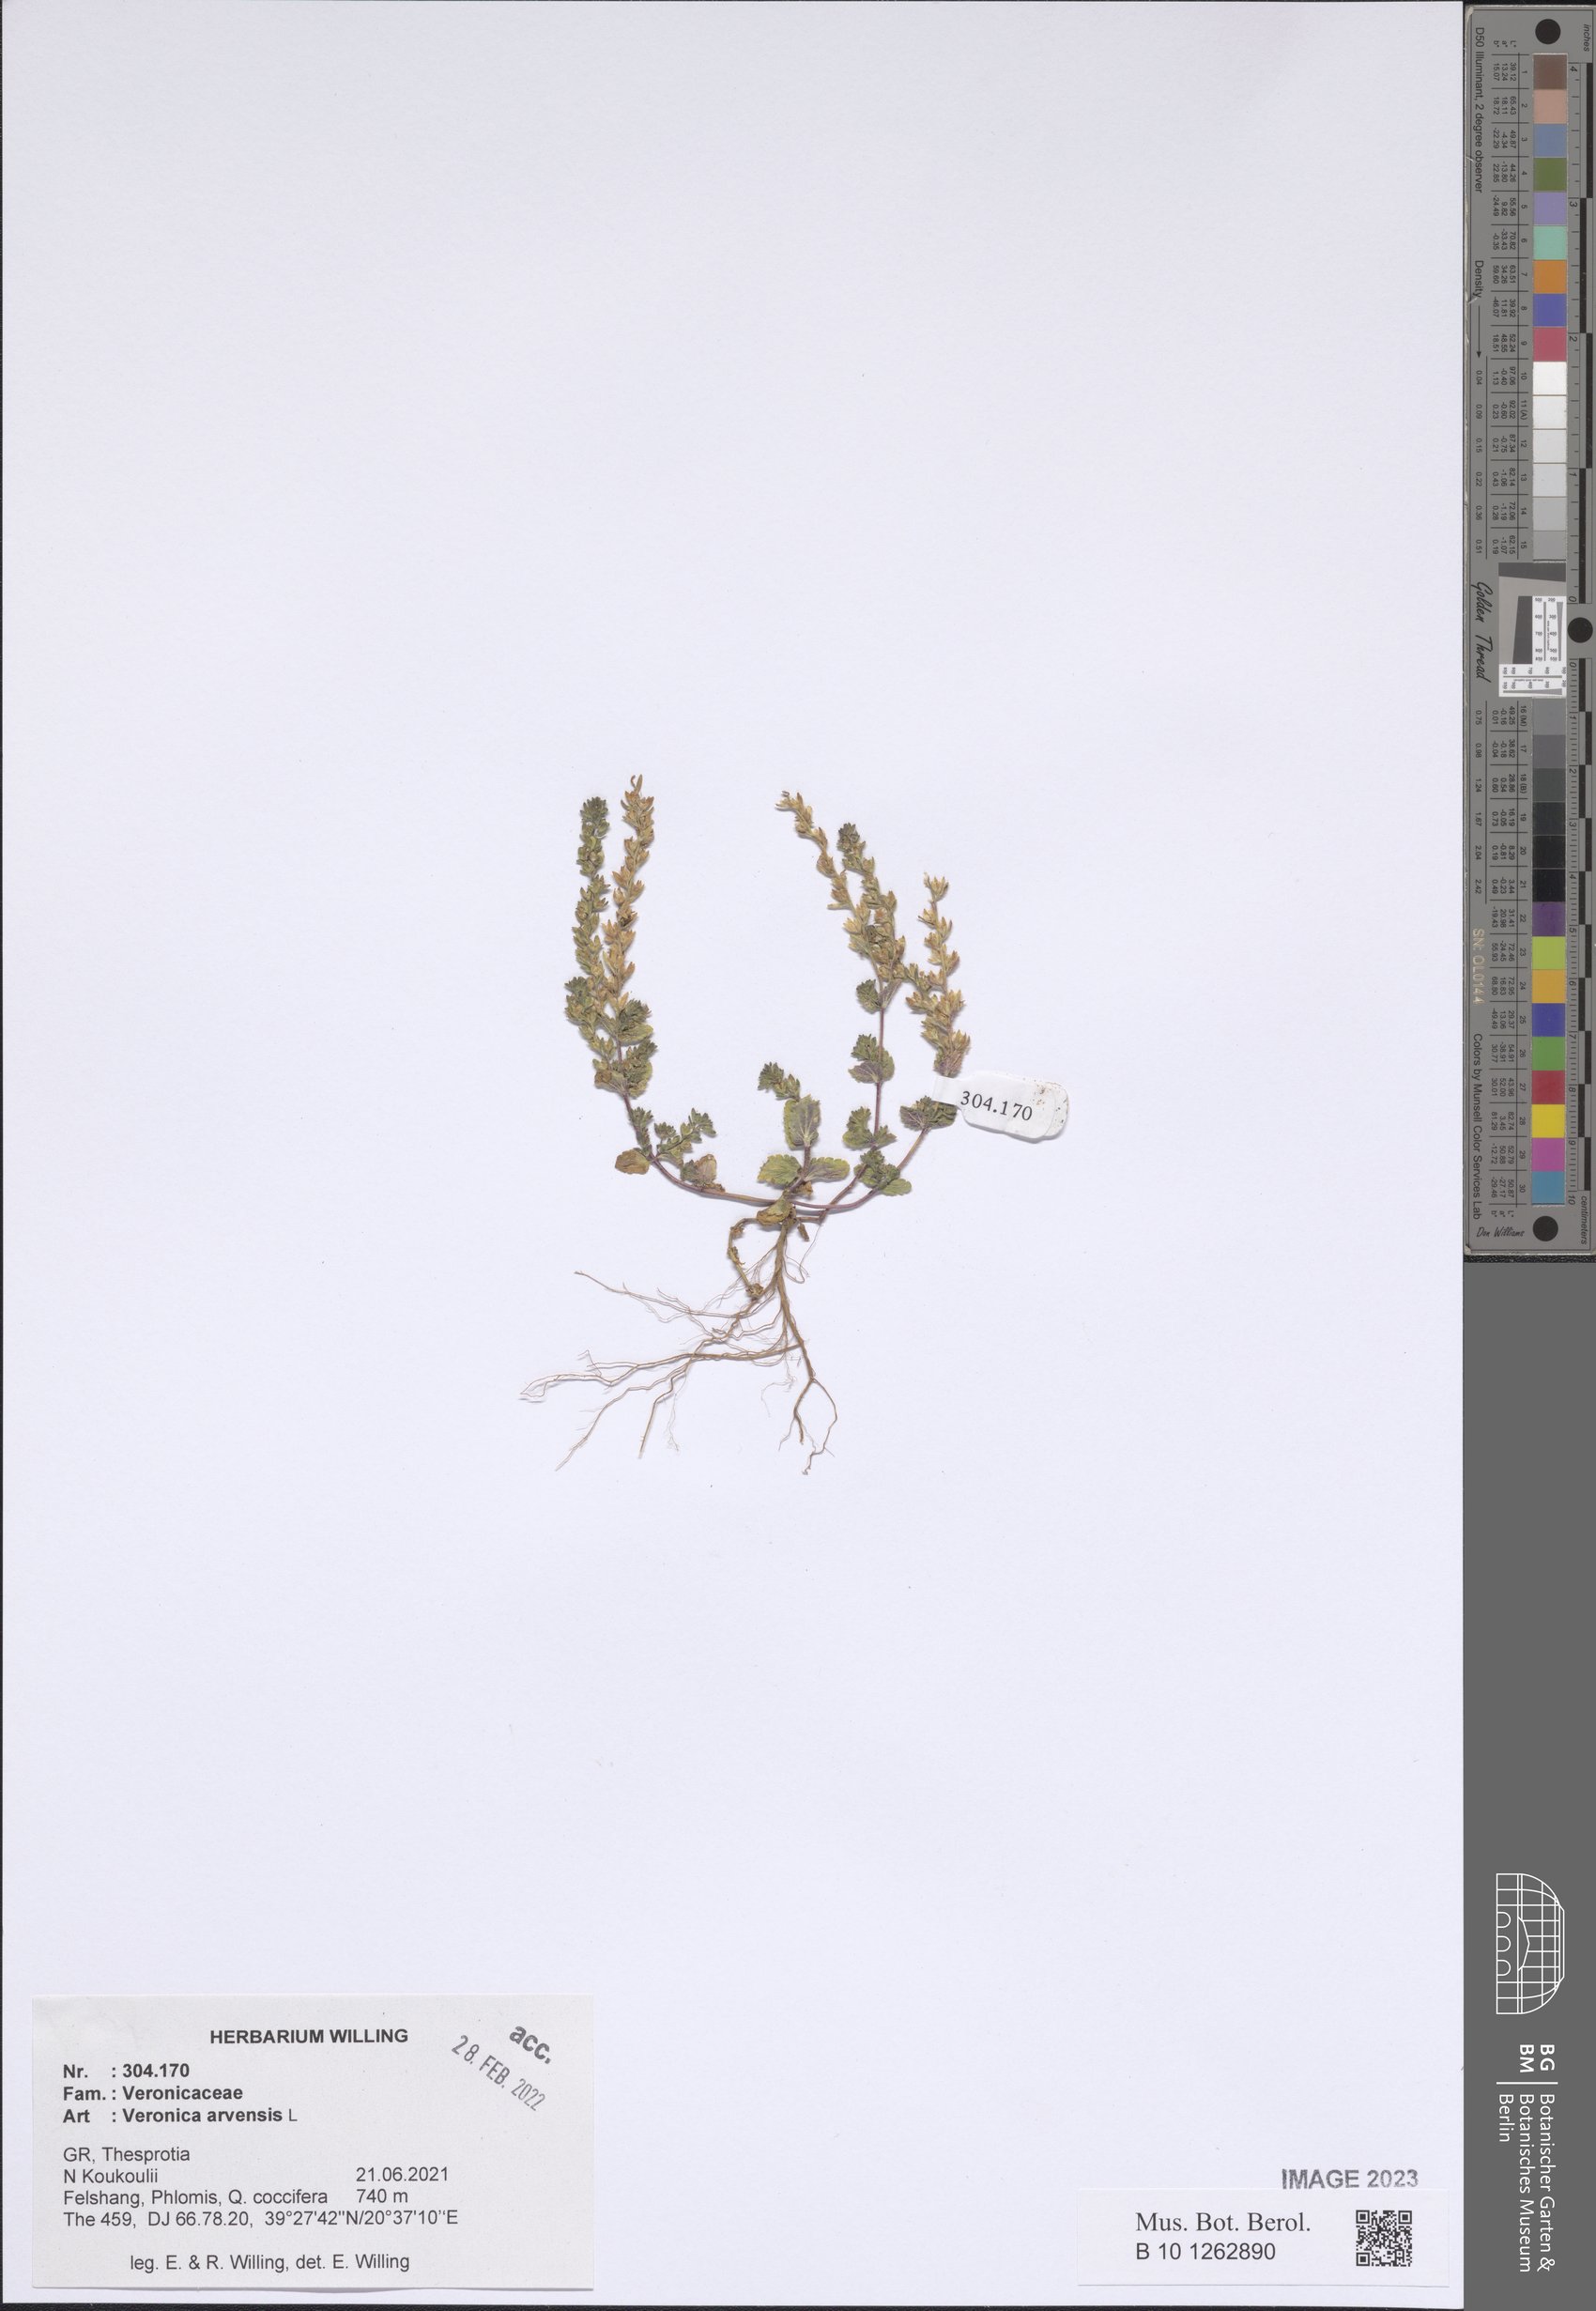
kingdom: Plantae
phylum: Tracheophyta
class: Magnoliopsida
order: Lamiales
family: Plantaginaceae
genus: Veronica
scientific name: Veronica arvensis
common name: Corn speedwell
